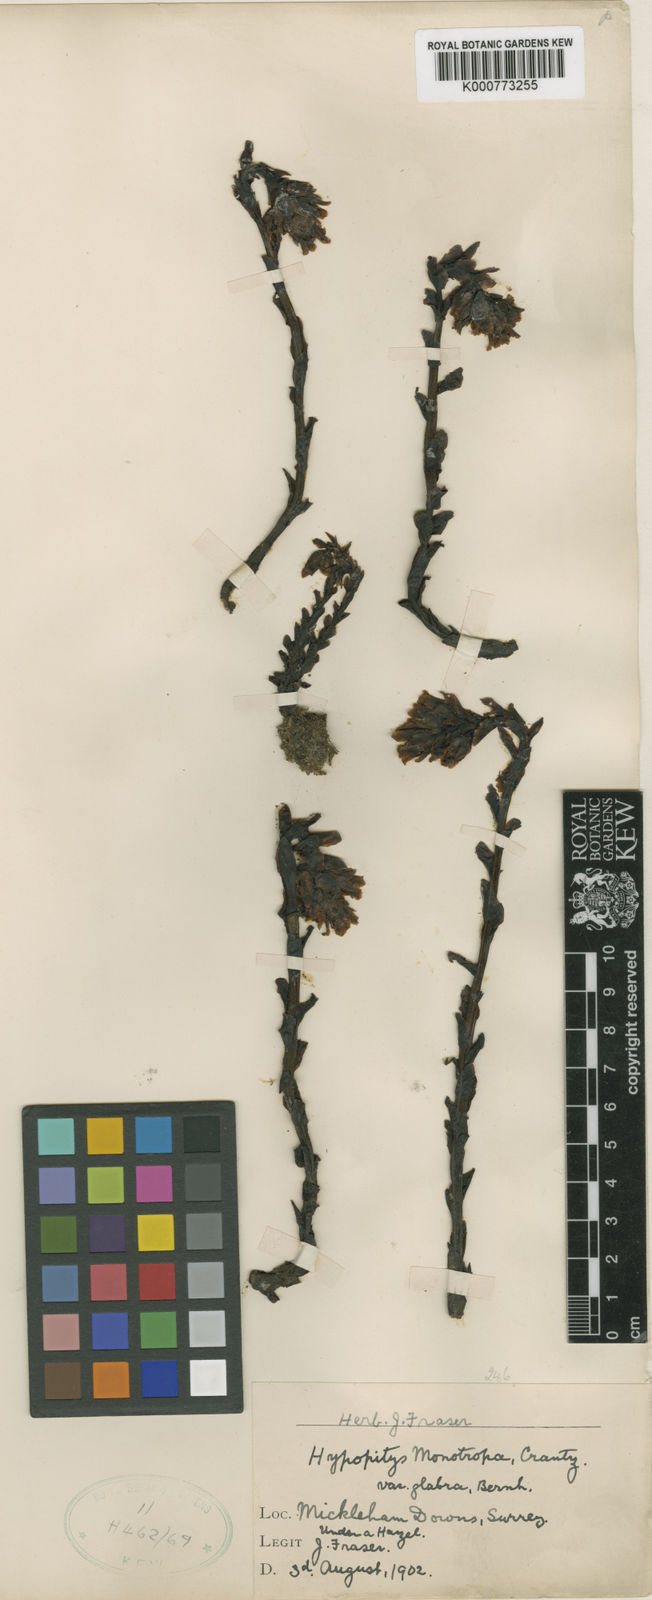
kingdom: Plantae
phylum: Tracheophyta
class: Magnoliopsida
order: Ericales
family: Ericaceae
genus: Monotropa
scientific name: Monotropa
